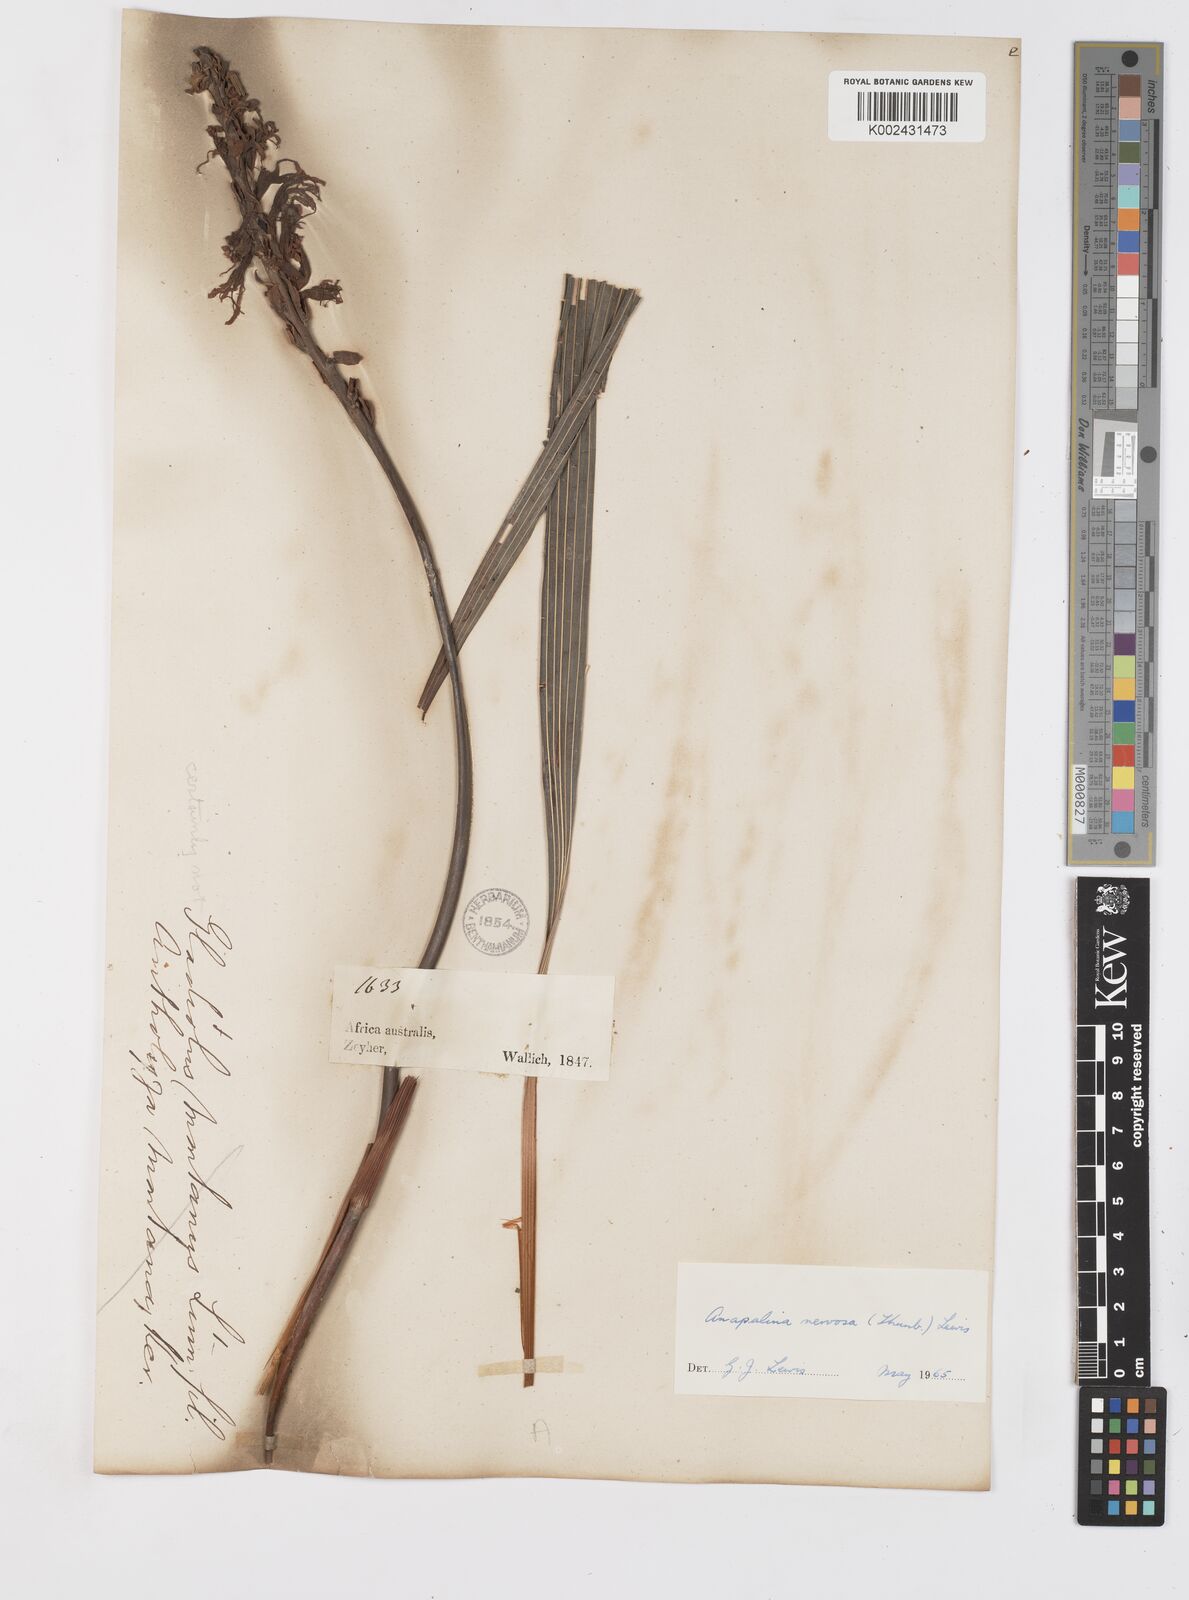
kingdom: Plantae
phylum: Tracheophyta
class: Liliopsida
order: Asparagales
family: Iridaceae
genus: Tritoniopsis
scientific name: Tritoniopsis nervosa
